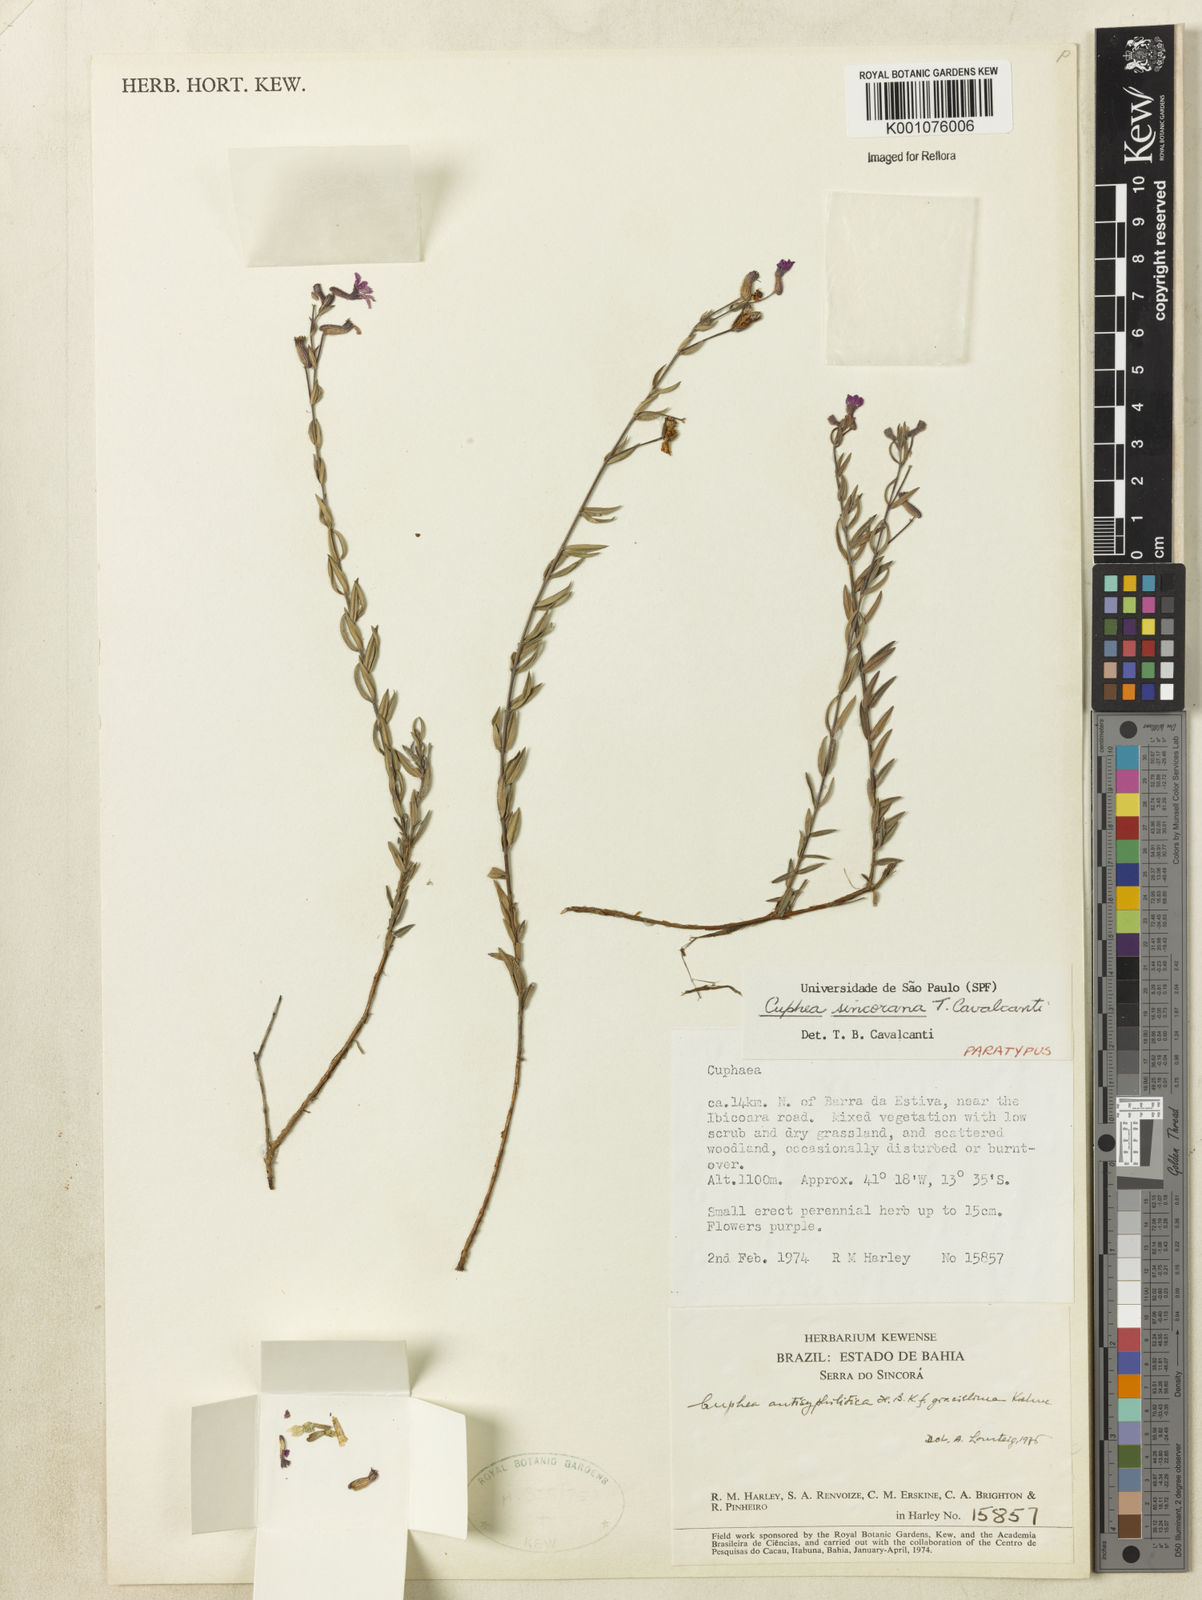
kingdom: Plantae
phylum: Tracheophyta
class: Magnoliopsida
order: Myrtales
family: Lythraceae
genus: Cuphea
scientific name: Cuphea sincorana
